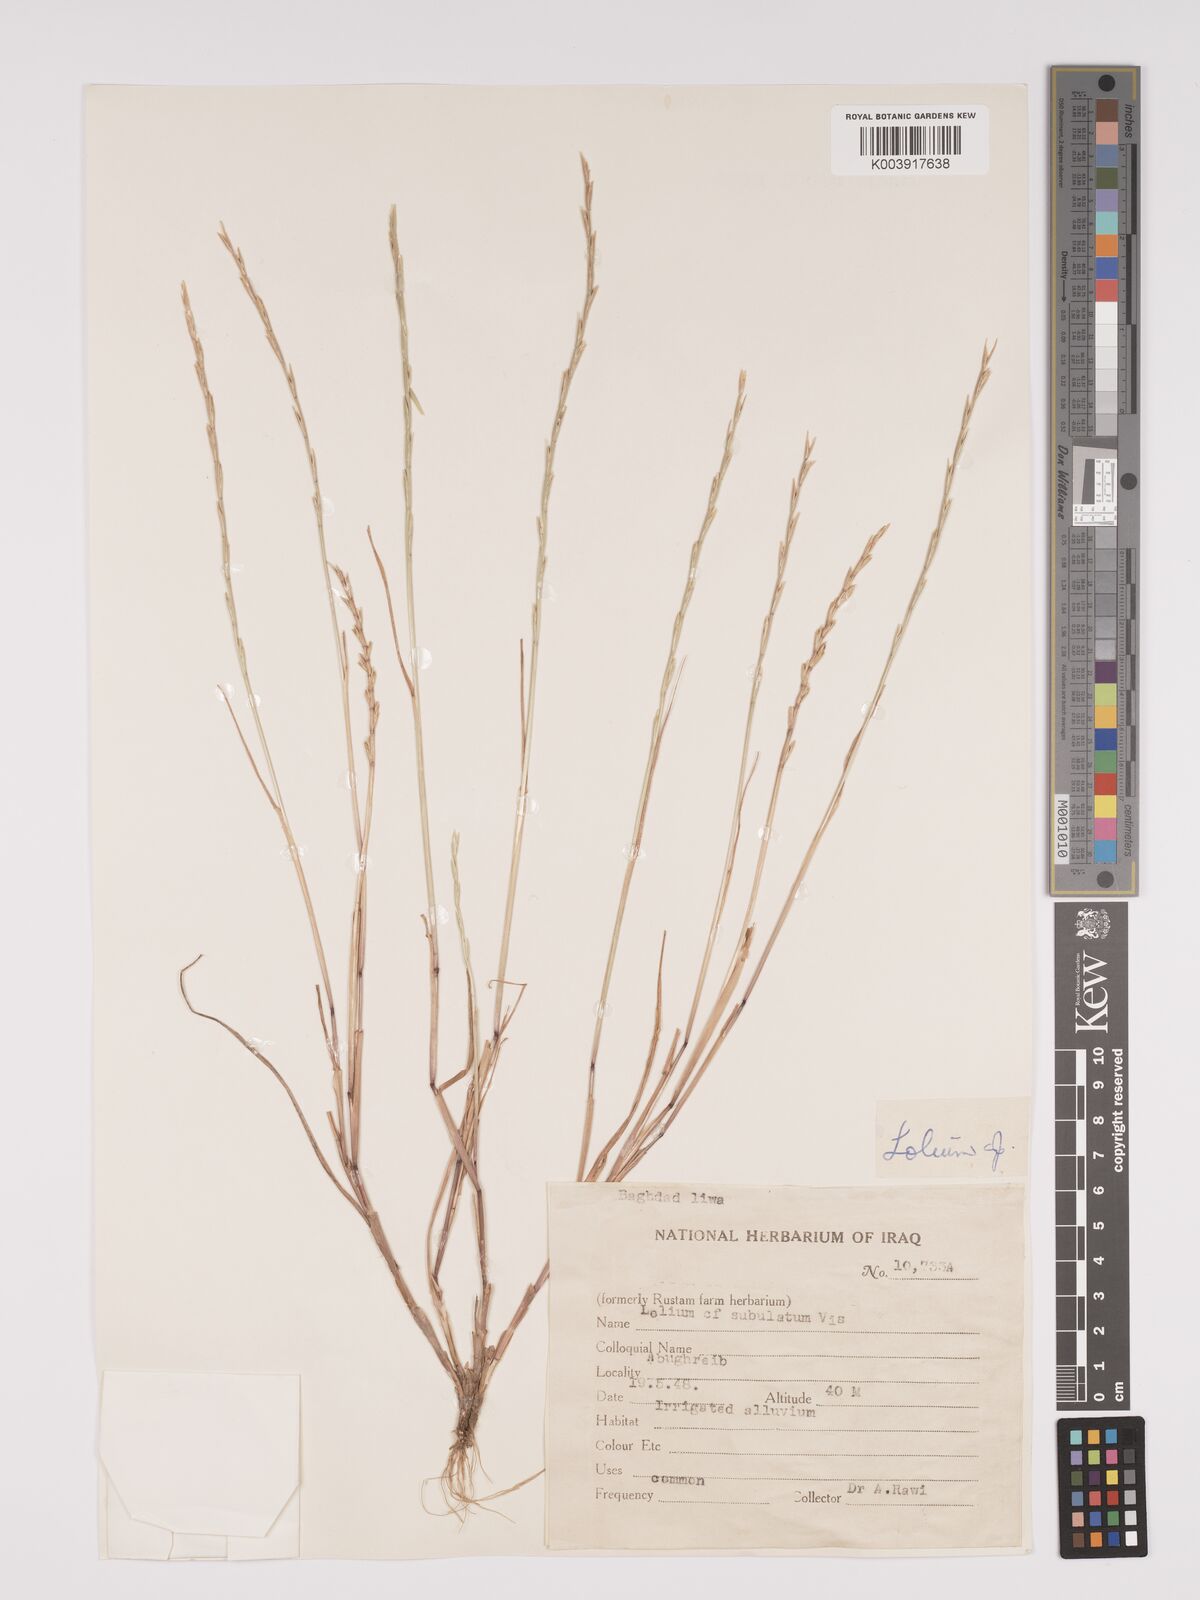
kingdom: Plantae
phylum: Tracheophyta
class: Liliopsida
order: Poales
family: Poaceae
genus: Lolium
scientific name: Lolium
